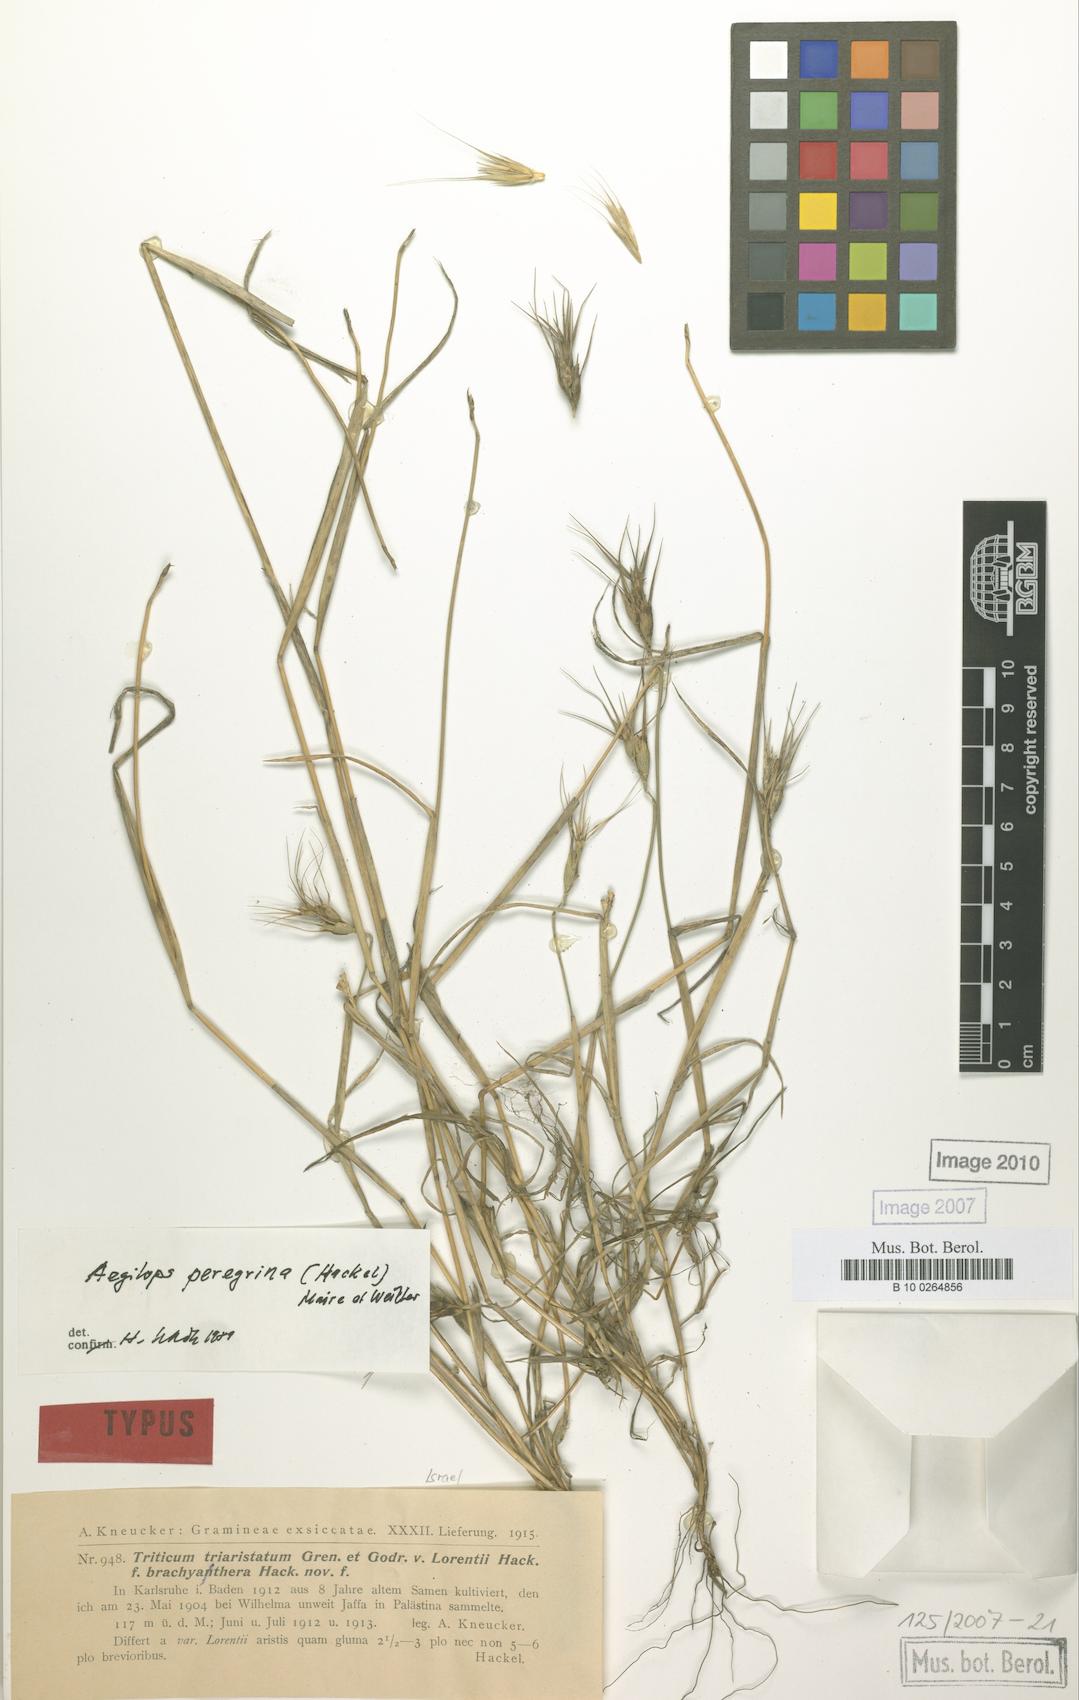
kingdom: Plantae
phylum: Tracheophyta
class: Liliopsida
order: Poales
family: Poaceae
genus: Aegilops
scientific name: Aegilops
